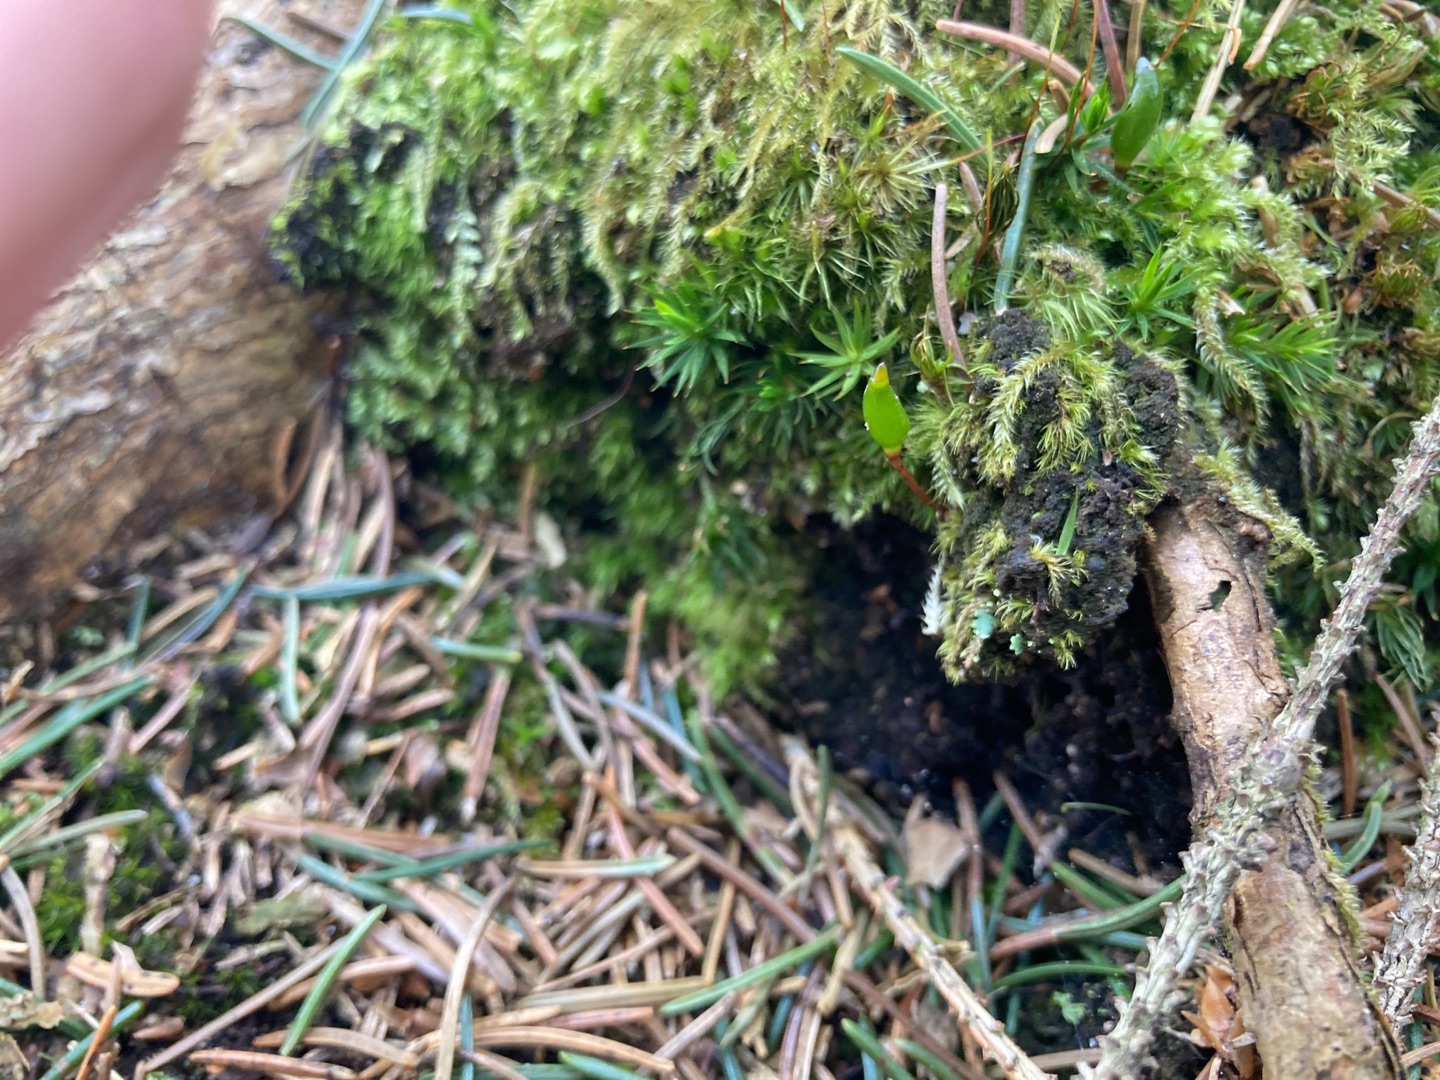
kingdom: Plantae
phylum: Bryophyta
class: Bryopsida
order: Buxbaumiales
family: Buxbaumiaceae
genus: Buxbaumia
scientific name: Buxbaumia viridis
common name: Grøn buxbaumia
